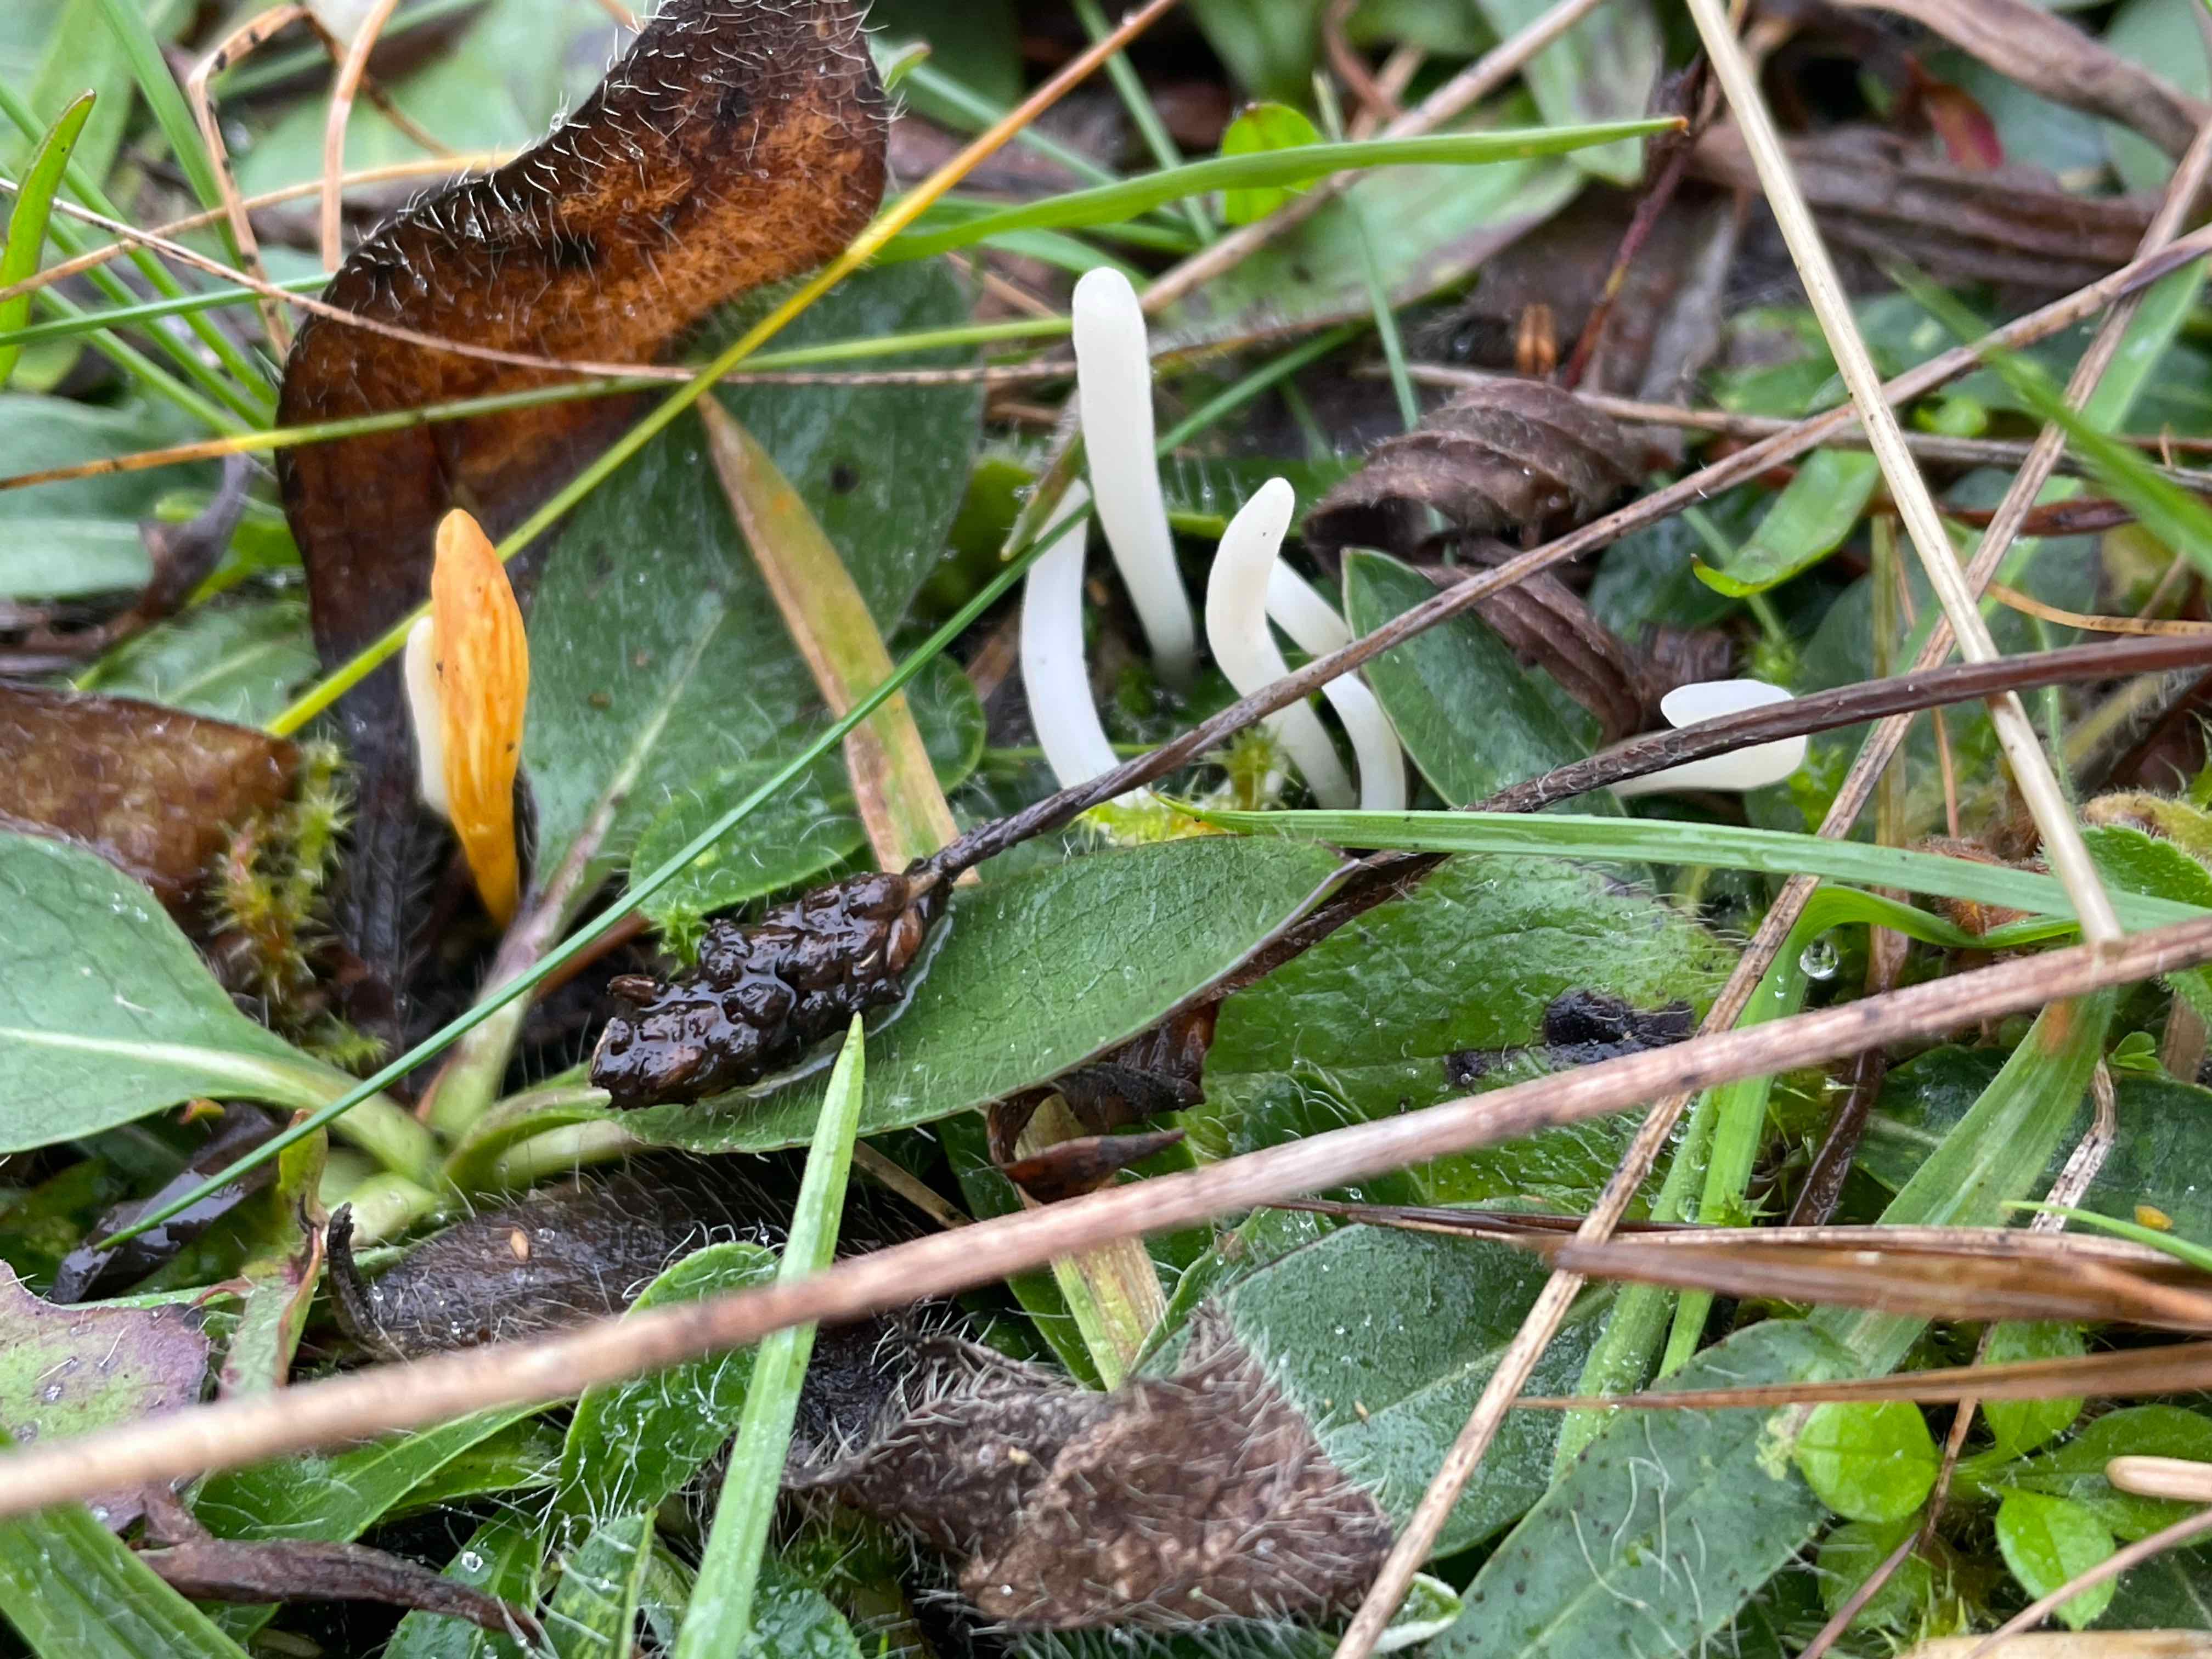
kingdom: Fungi
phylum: Basidiomycota
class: Agaricomycetes
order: Agaricales
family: Clavariaceae
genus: Clavaria
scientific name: Clavaria
